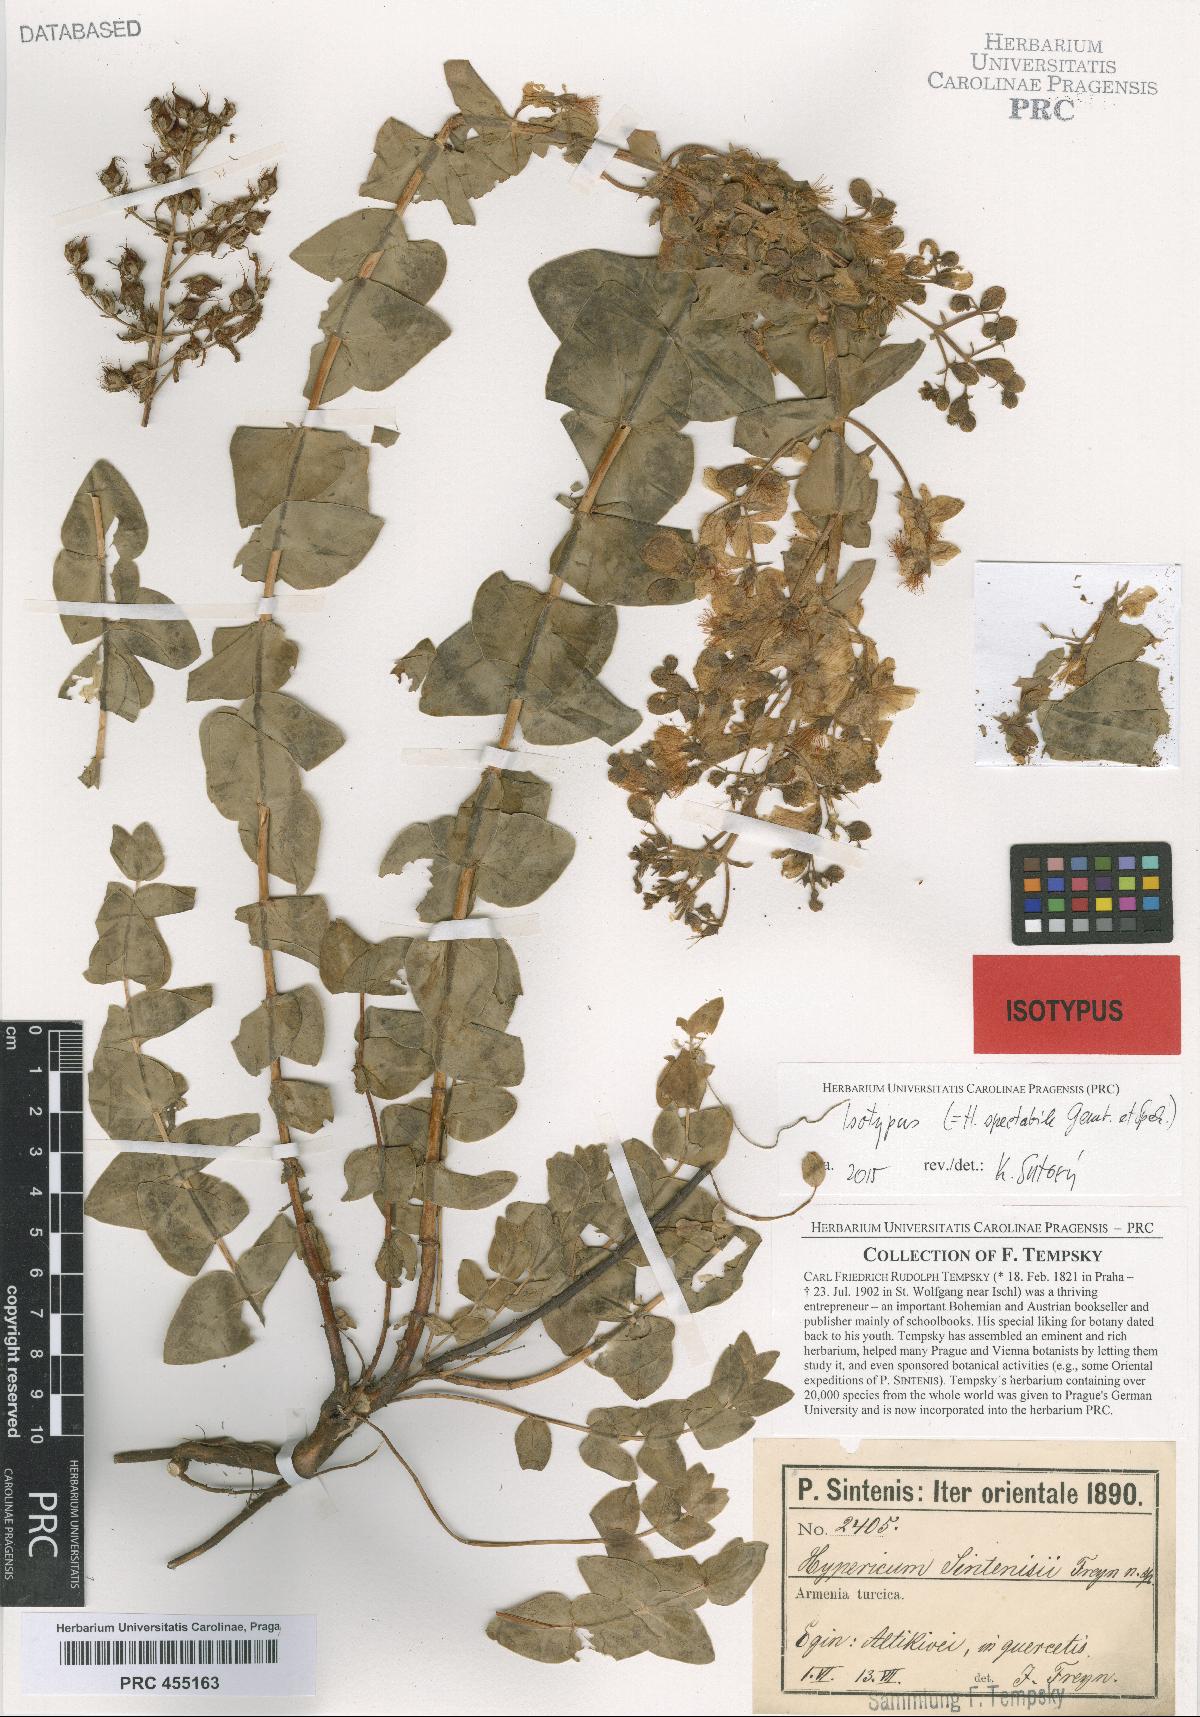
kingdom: Plantae
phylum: Tracheophyta
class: Magnoliopsida
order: Malpighiales
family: Hypericaceae
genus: Hypericum
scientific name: Hypericum spectabile
